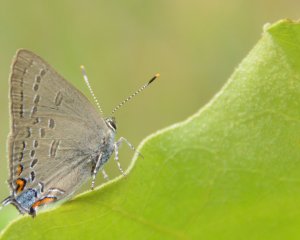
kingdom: Animalia
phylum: Arthropoda
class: Insecta
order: Lepidoptera
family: Lycaenidae
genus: Satyrium
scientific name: Satyrium edwardsii
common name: Edwards' Hairstreak
